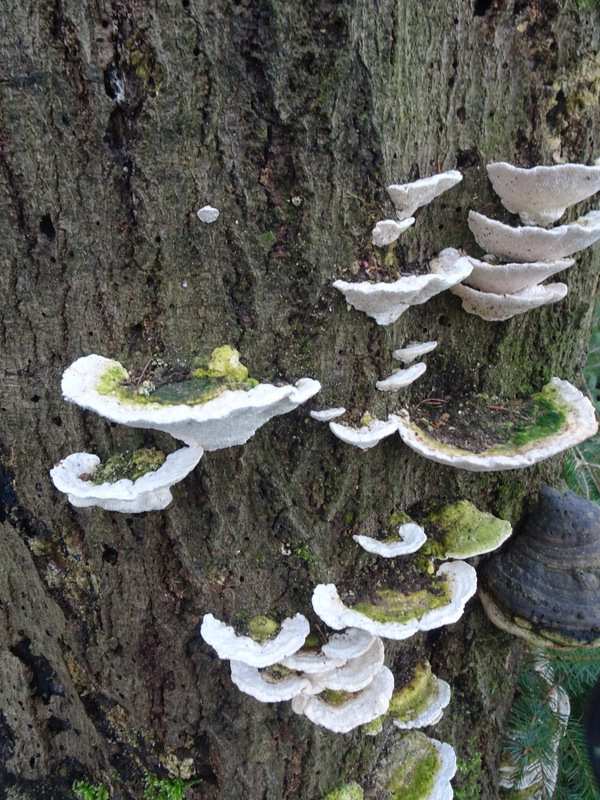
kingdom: Fungi
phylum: Basidiomycota
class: Agaricomycetes
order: Polyporales
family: Polyporaceae
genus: Trametes
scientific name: Trametes gibbosa
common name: puklet læderporesvamp
